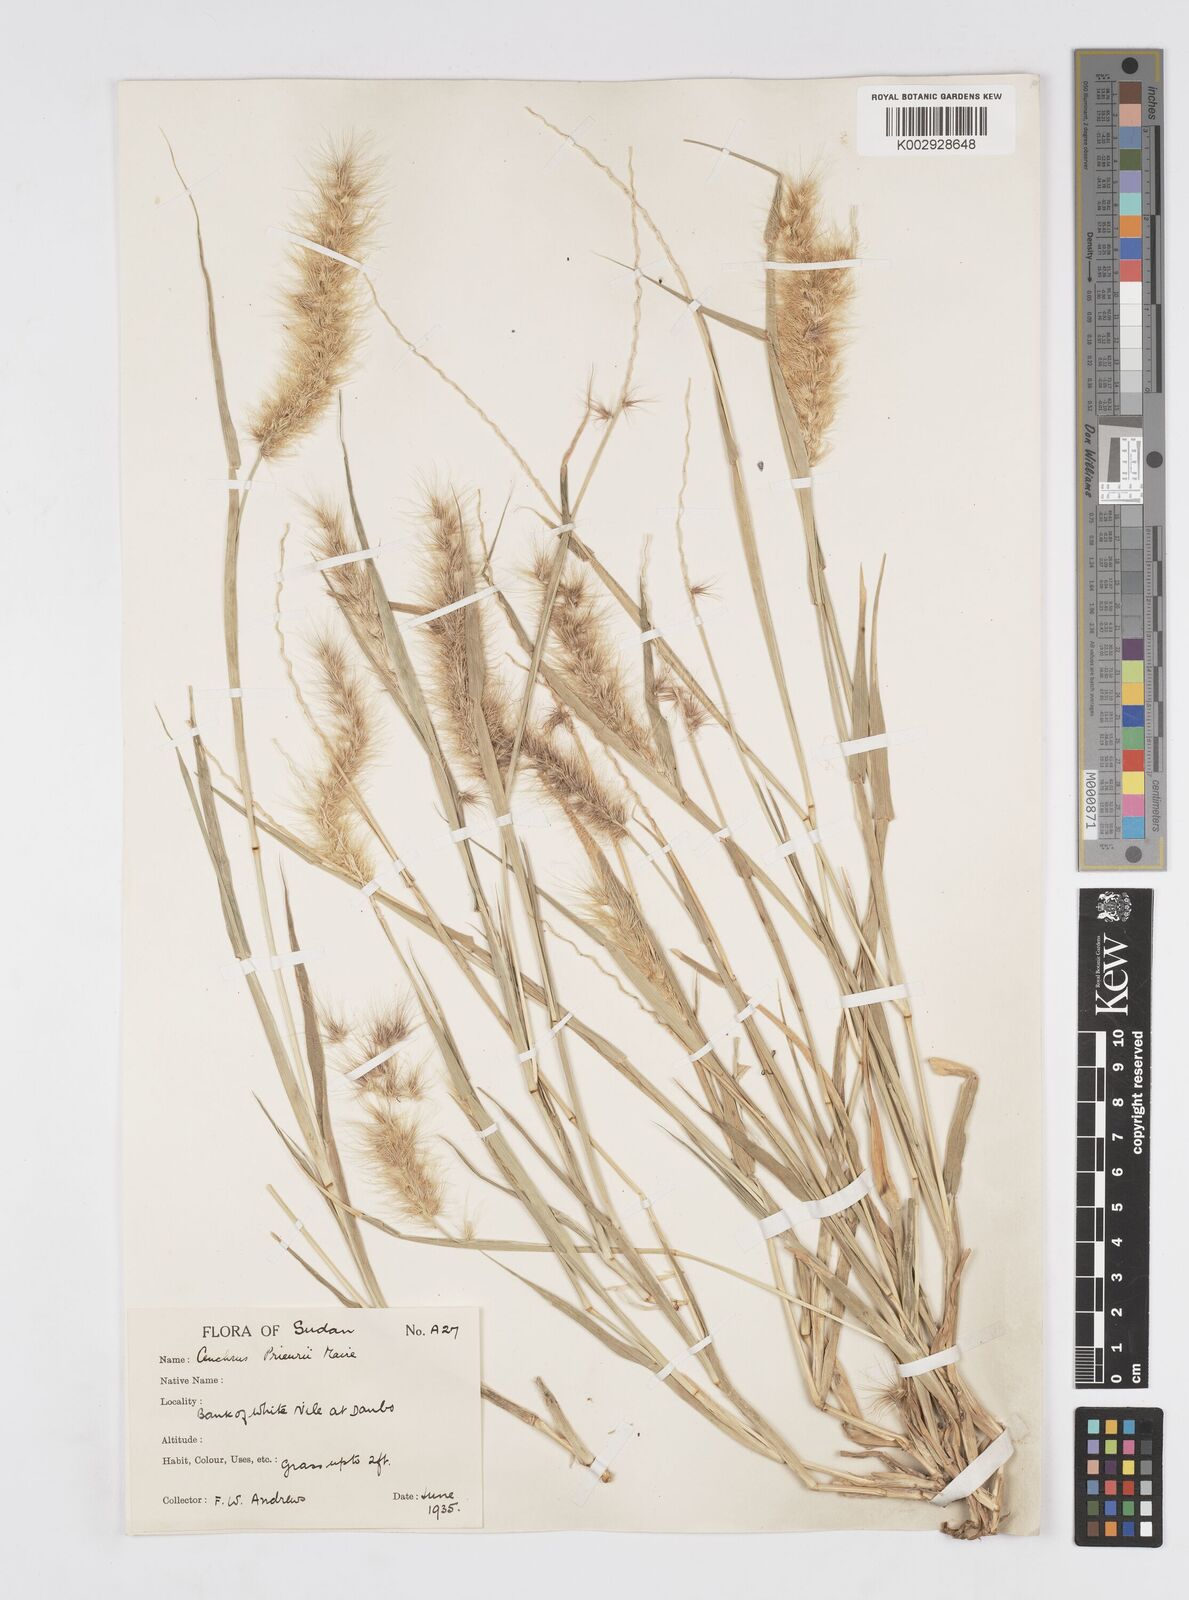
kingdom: Plantae
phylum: Tracheophyta
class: Liliopsida
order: Poales
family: Poaceae
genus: Cenchrus
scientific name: Cenchrus prieurii
